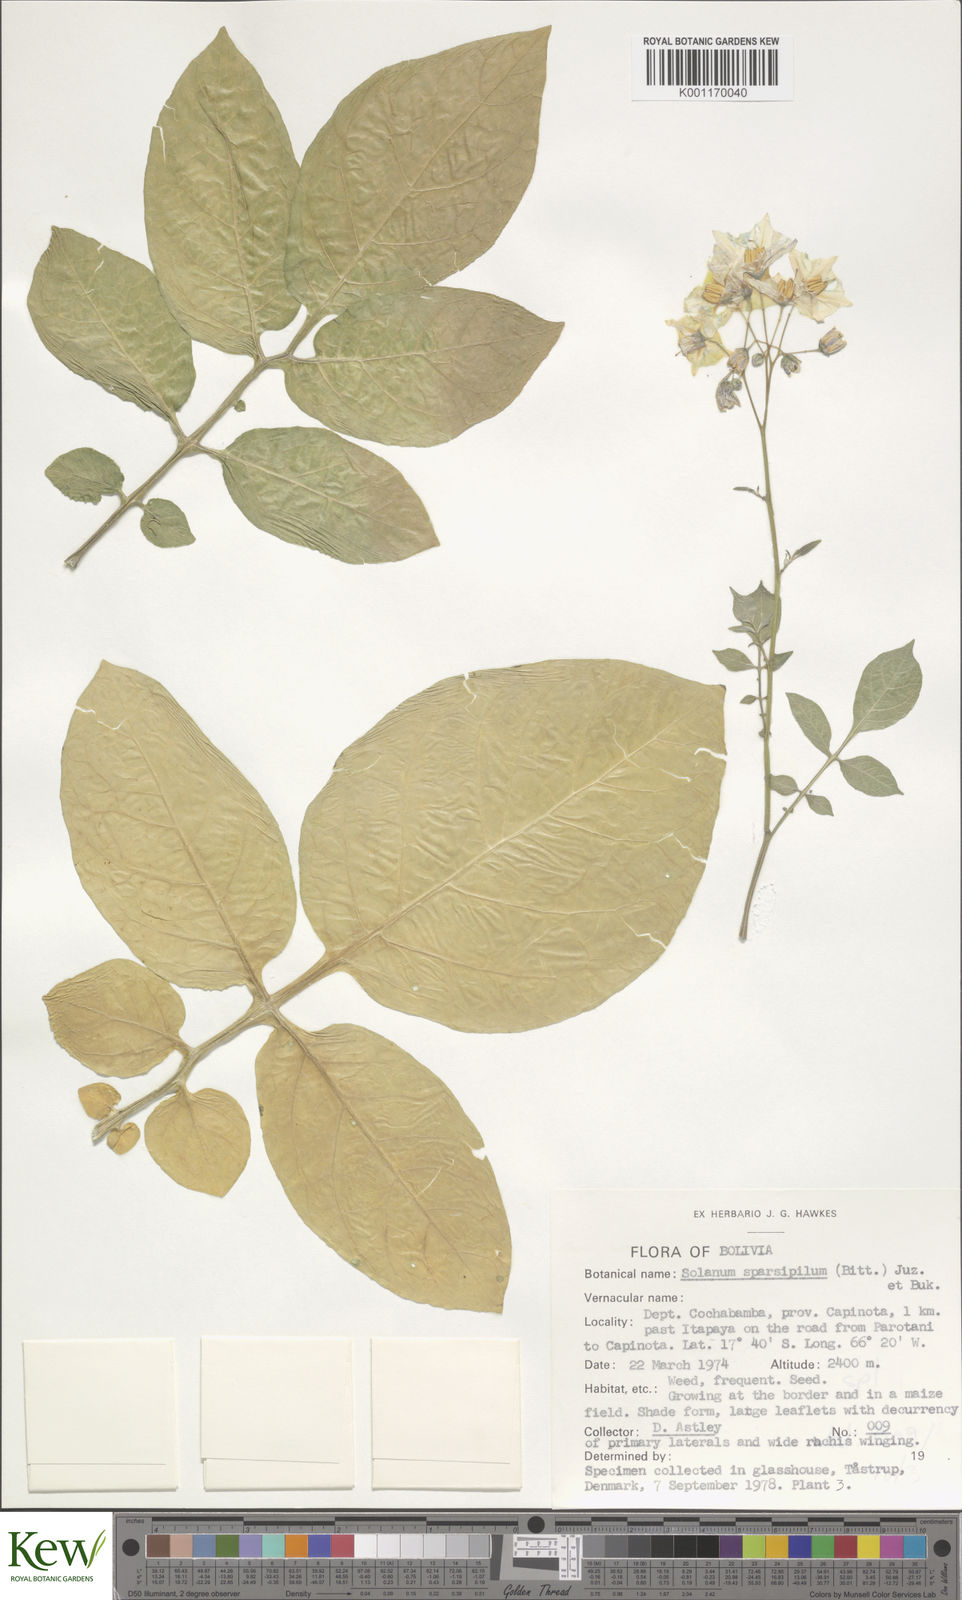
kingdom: Plantae
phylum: Tracheophyta
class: Magnoliopsida
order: Solanales
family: Solanaceae
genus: Solanum
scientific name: Solanum brevicaule
